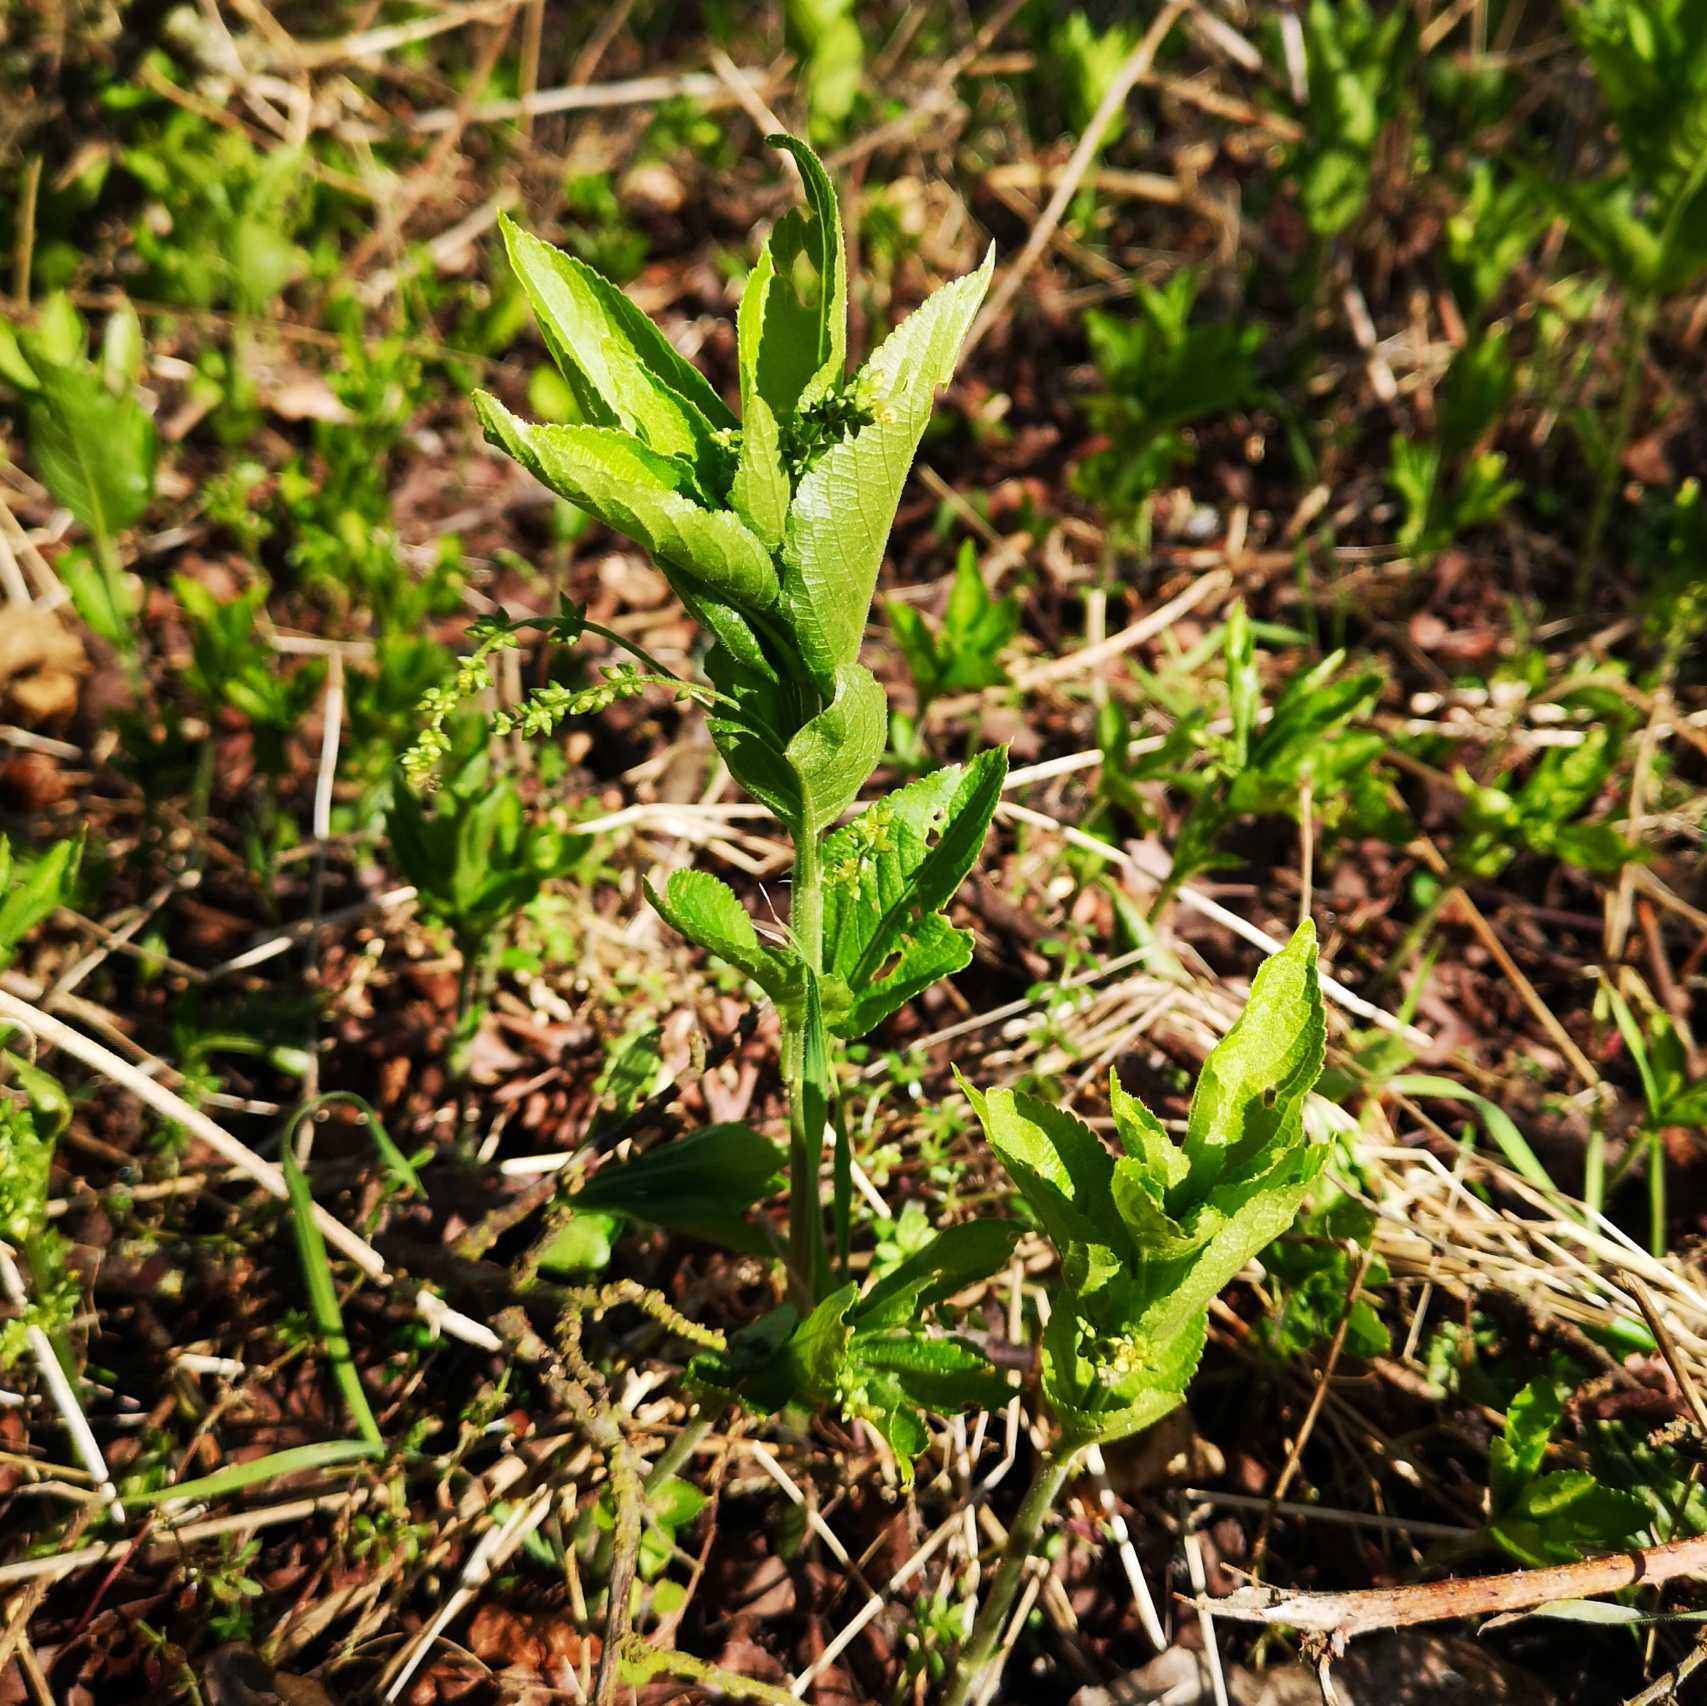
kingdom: Plantae
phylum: Tracheophyta
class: Magnoliopsida
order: Malpighiales
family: Euphorbiaceae
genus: Mercurialis
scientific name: Mercurialis perennis
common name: Almindelig bingelurt
